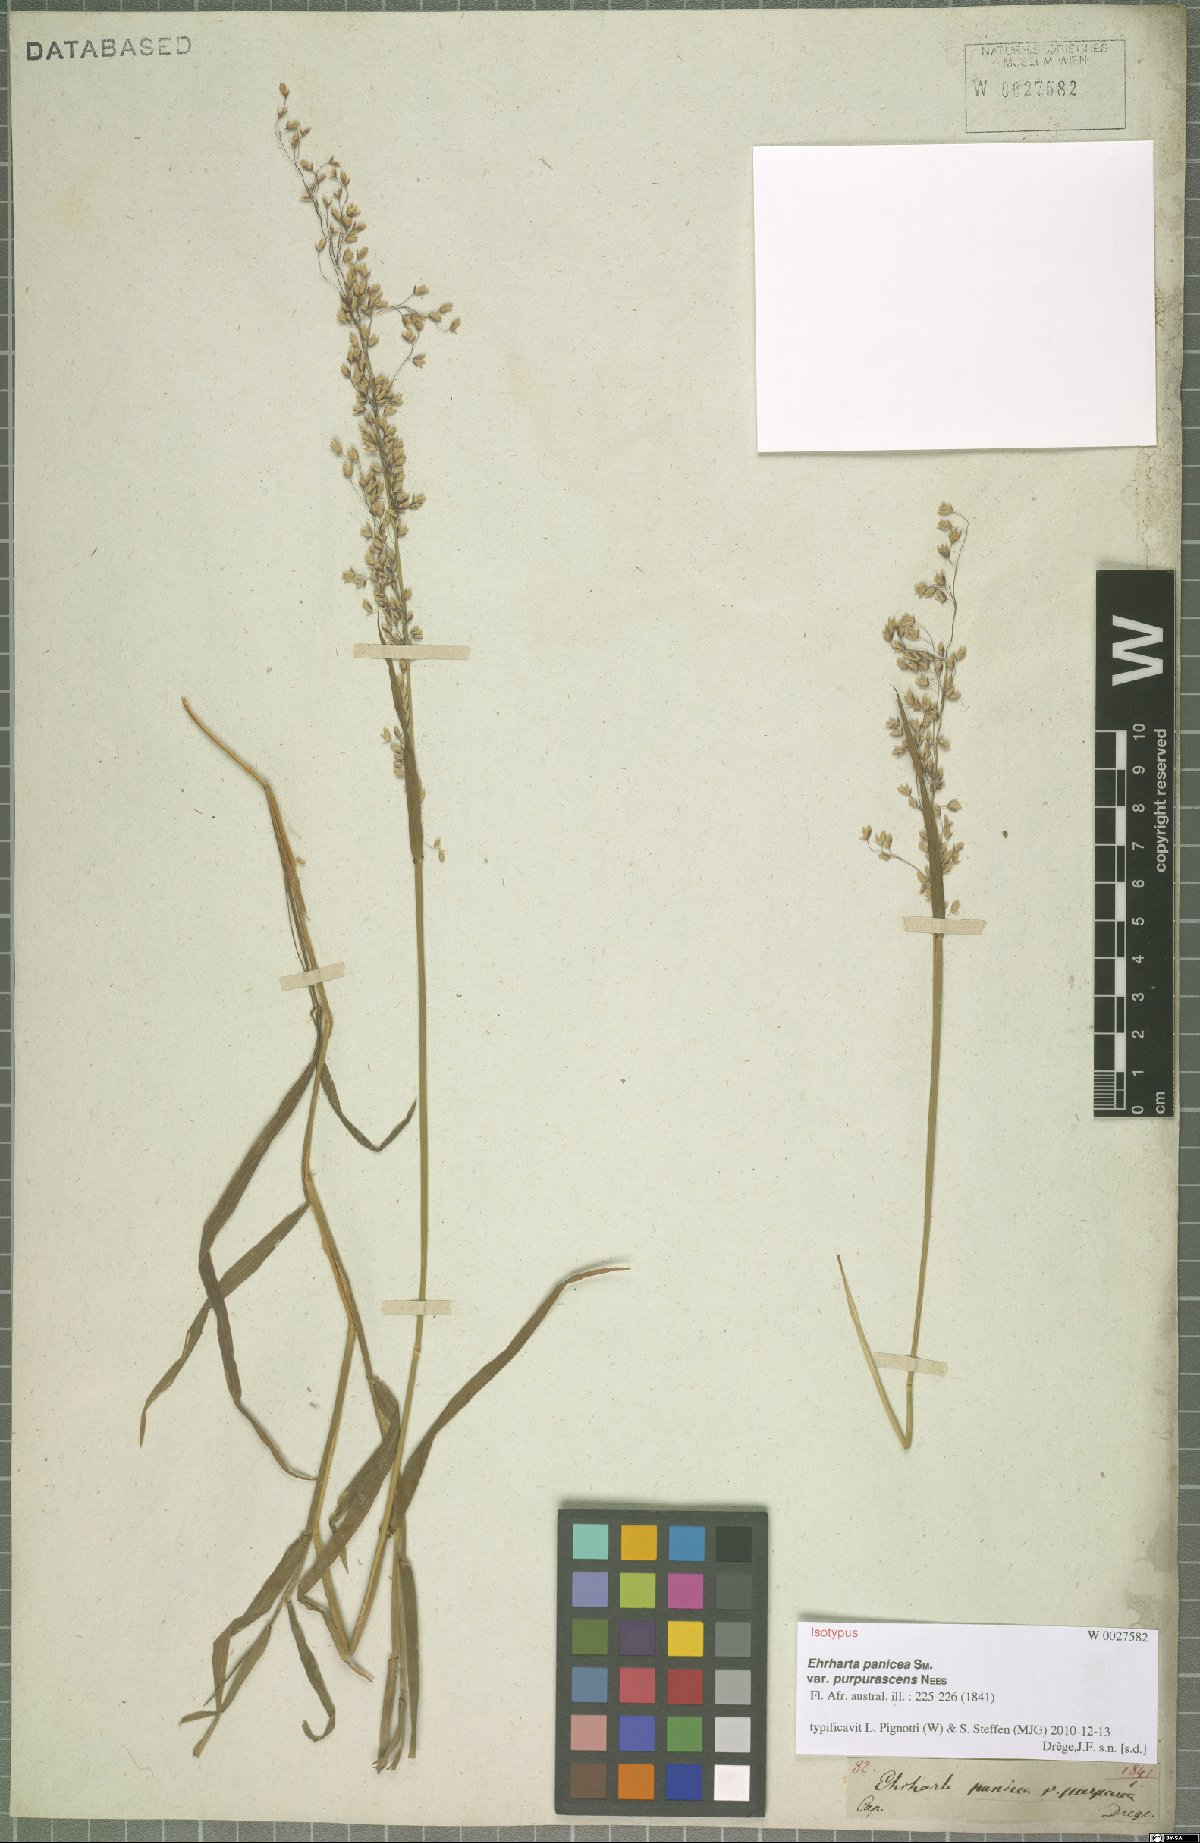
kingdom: Plantae
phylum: Tracheophyta
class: Liliopsida
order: Poales
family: Poaceae
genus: Ehrharta
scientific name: Ehrharta erecta
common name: Panic veldtgrass
